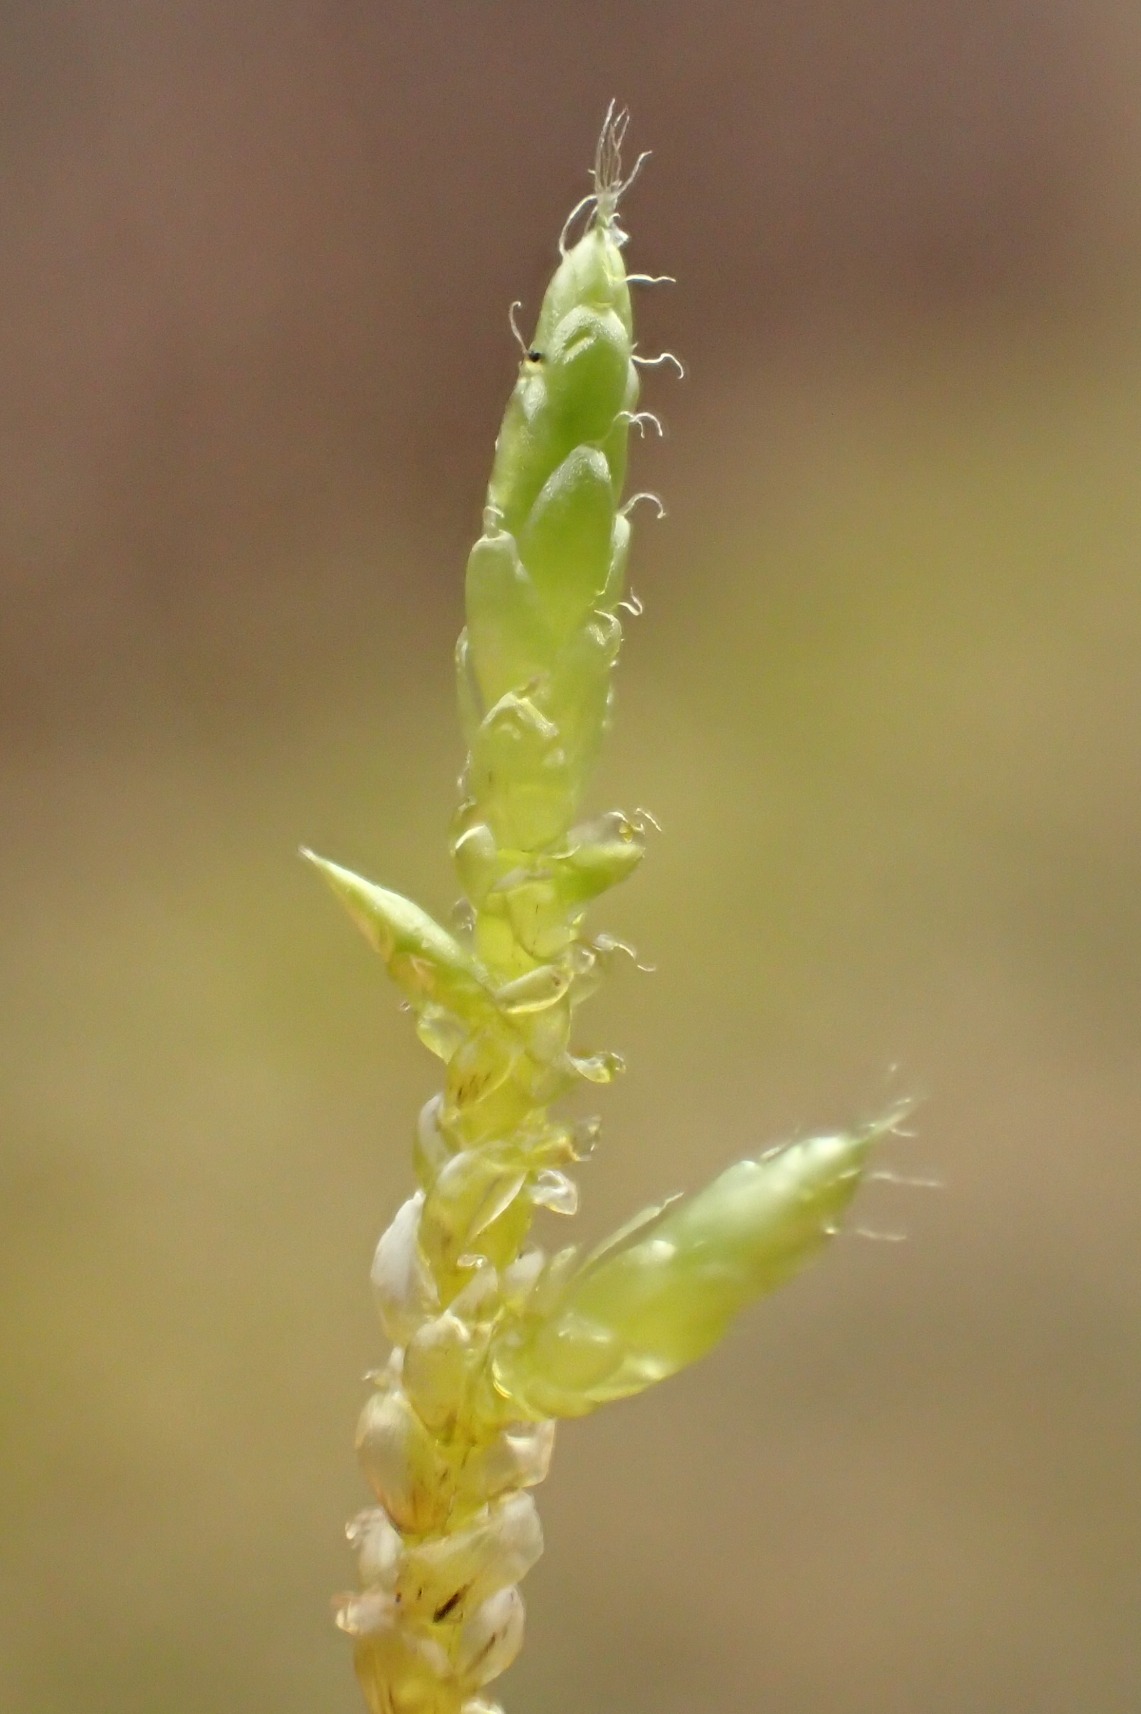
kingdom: Plantae
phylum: Bryophyta
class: Bryopsida
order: Hypnales
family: Brachytheciaceae
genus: Cirriphyllum
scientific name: Cirriphyllum piliferum
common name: Almindelig penselmos
